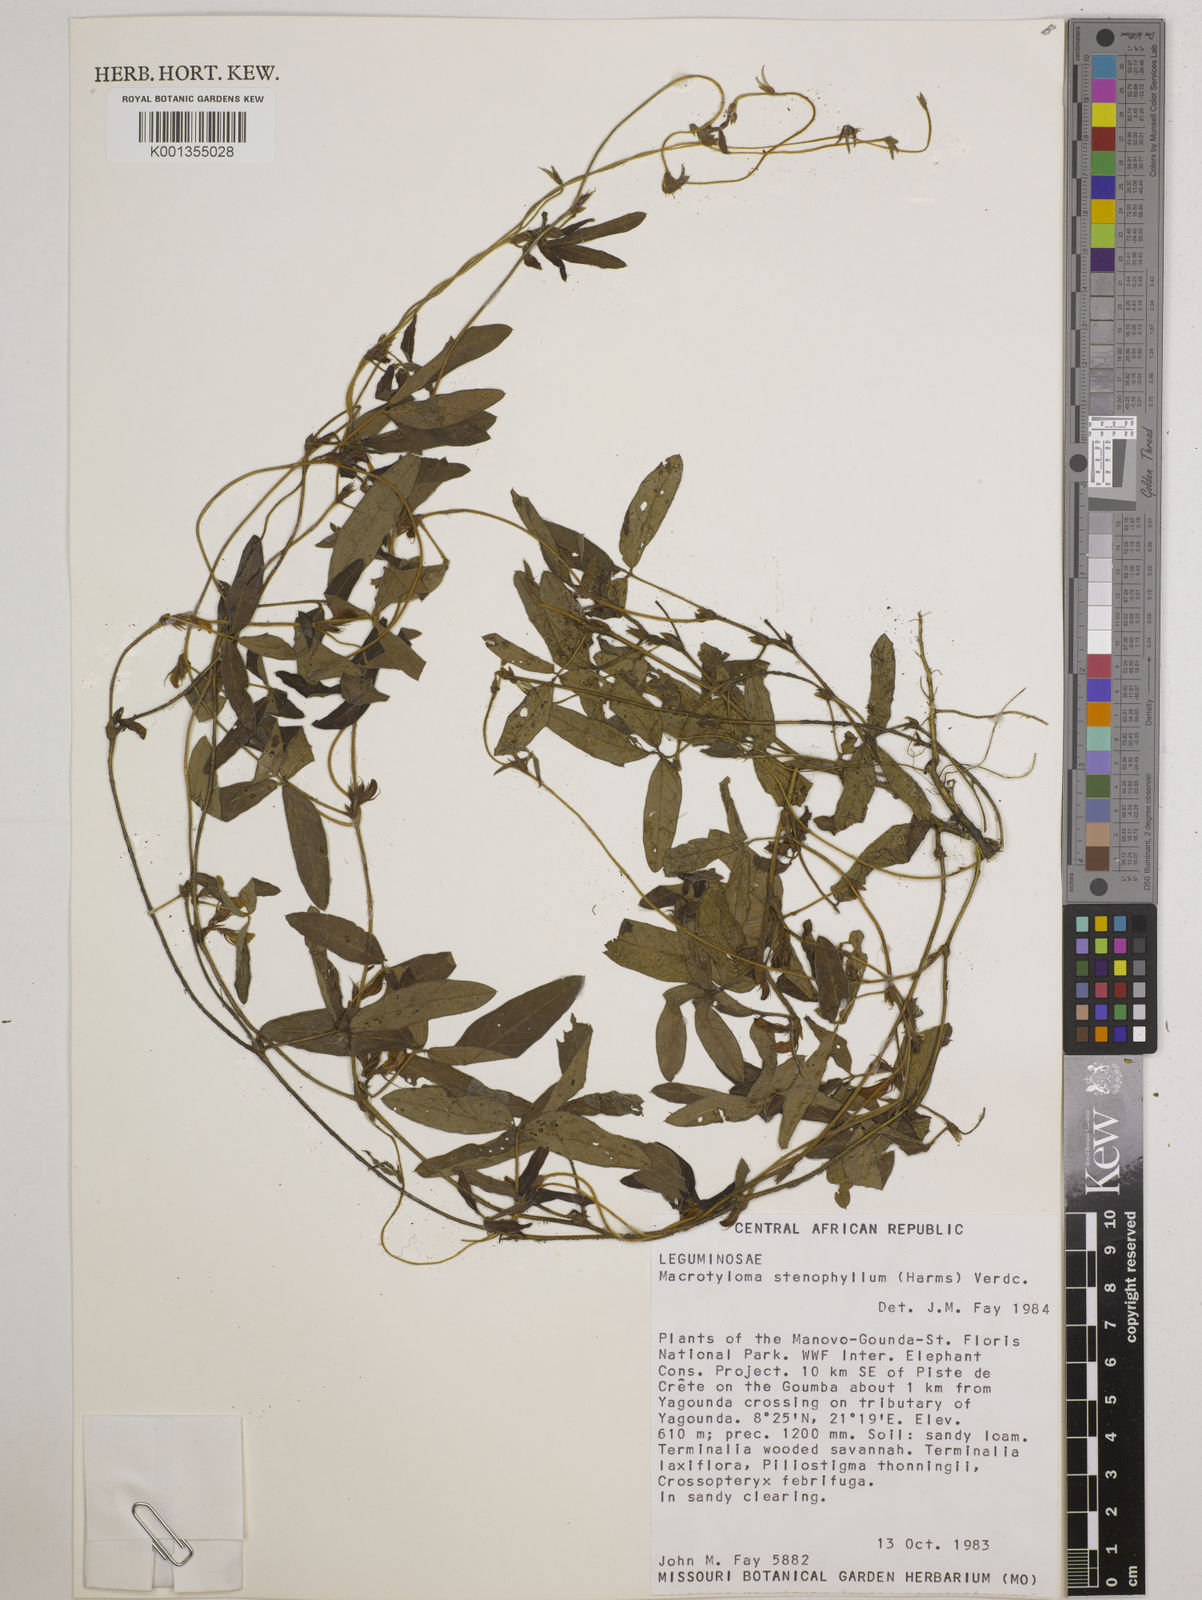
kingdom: Plantae
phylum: Tracheophyta
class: Magnoliopsida
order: Fabales
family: Fabaceae
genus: Macrotyloma
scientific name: Macrotyloma stenophyllum
